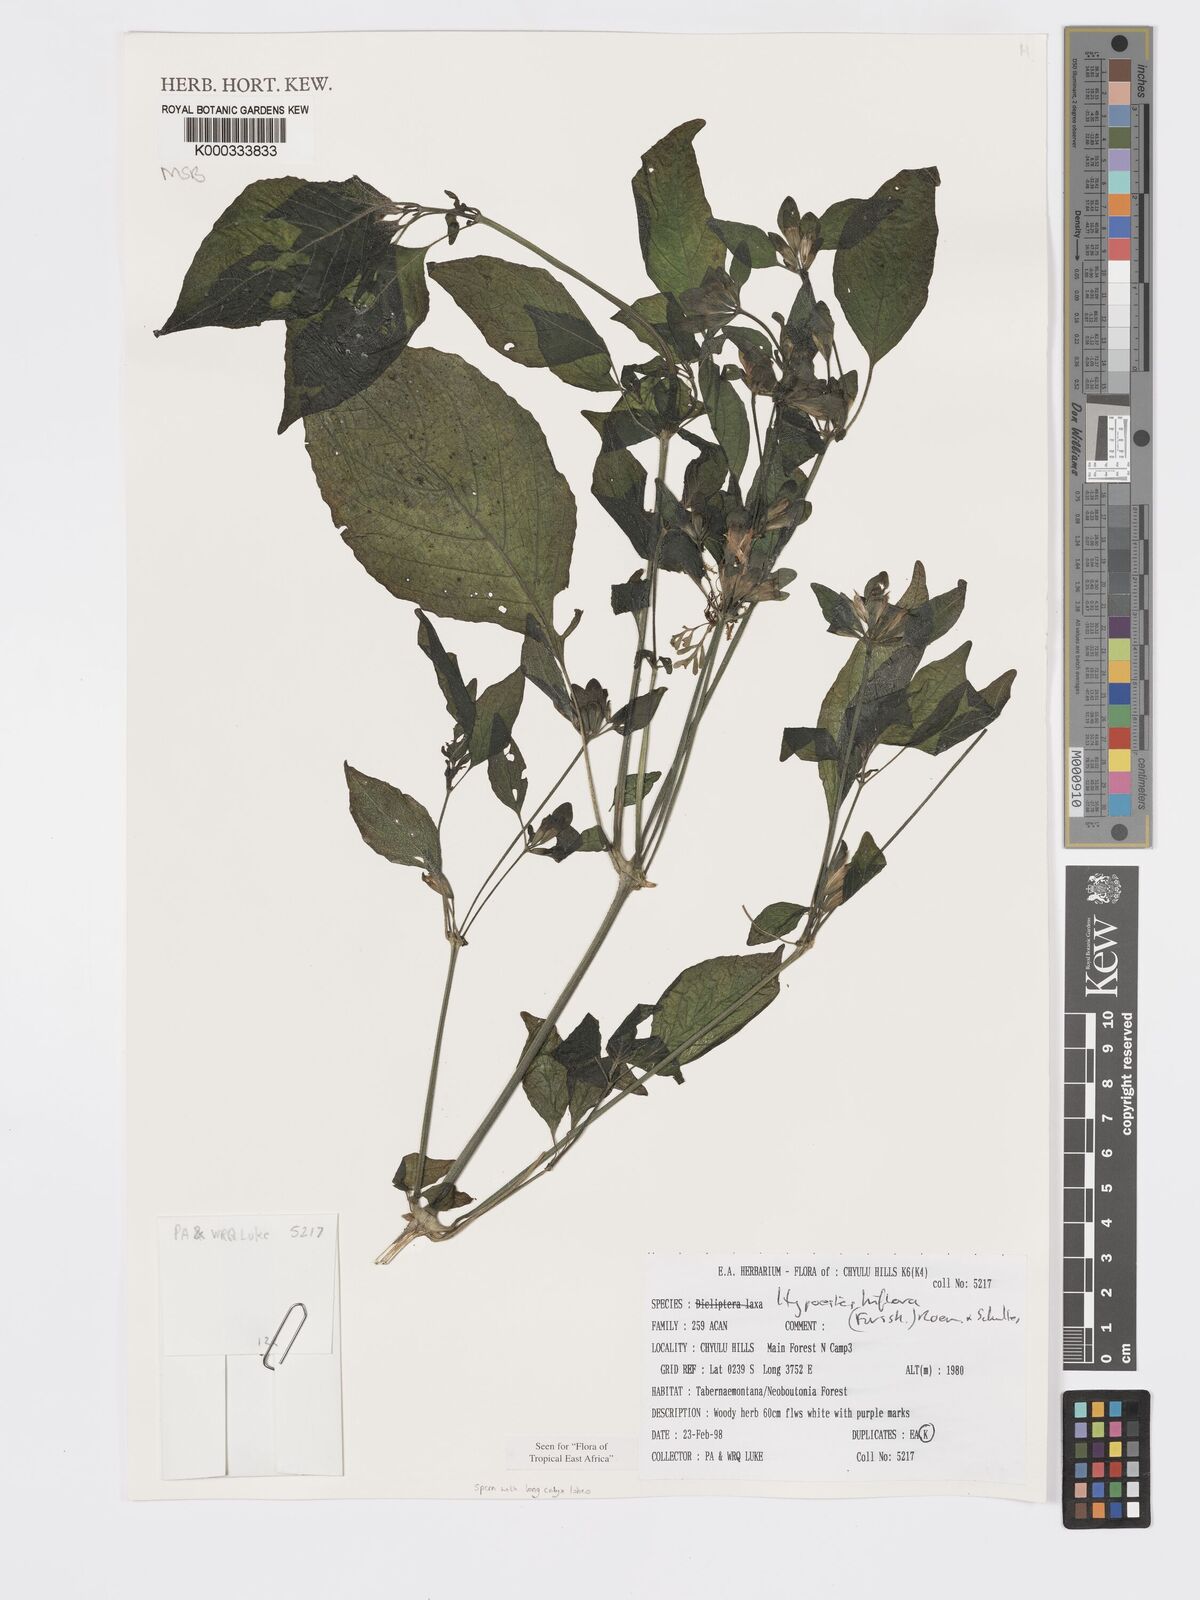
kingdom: Plantae
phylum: Tracheophyta
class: Magnoliopsida
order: Lamiales
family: Acanthaceae
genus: Hypoestes
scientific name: Hypoestes triflora
